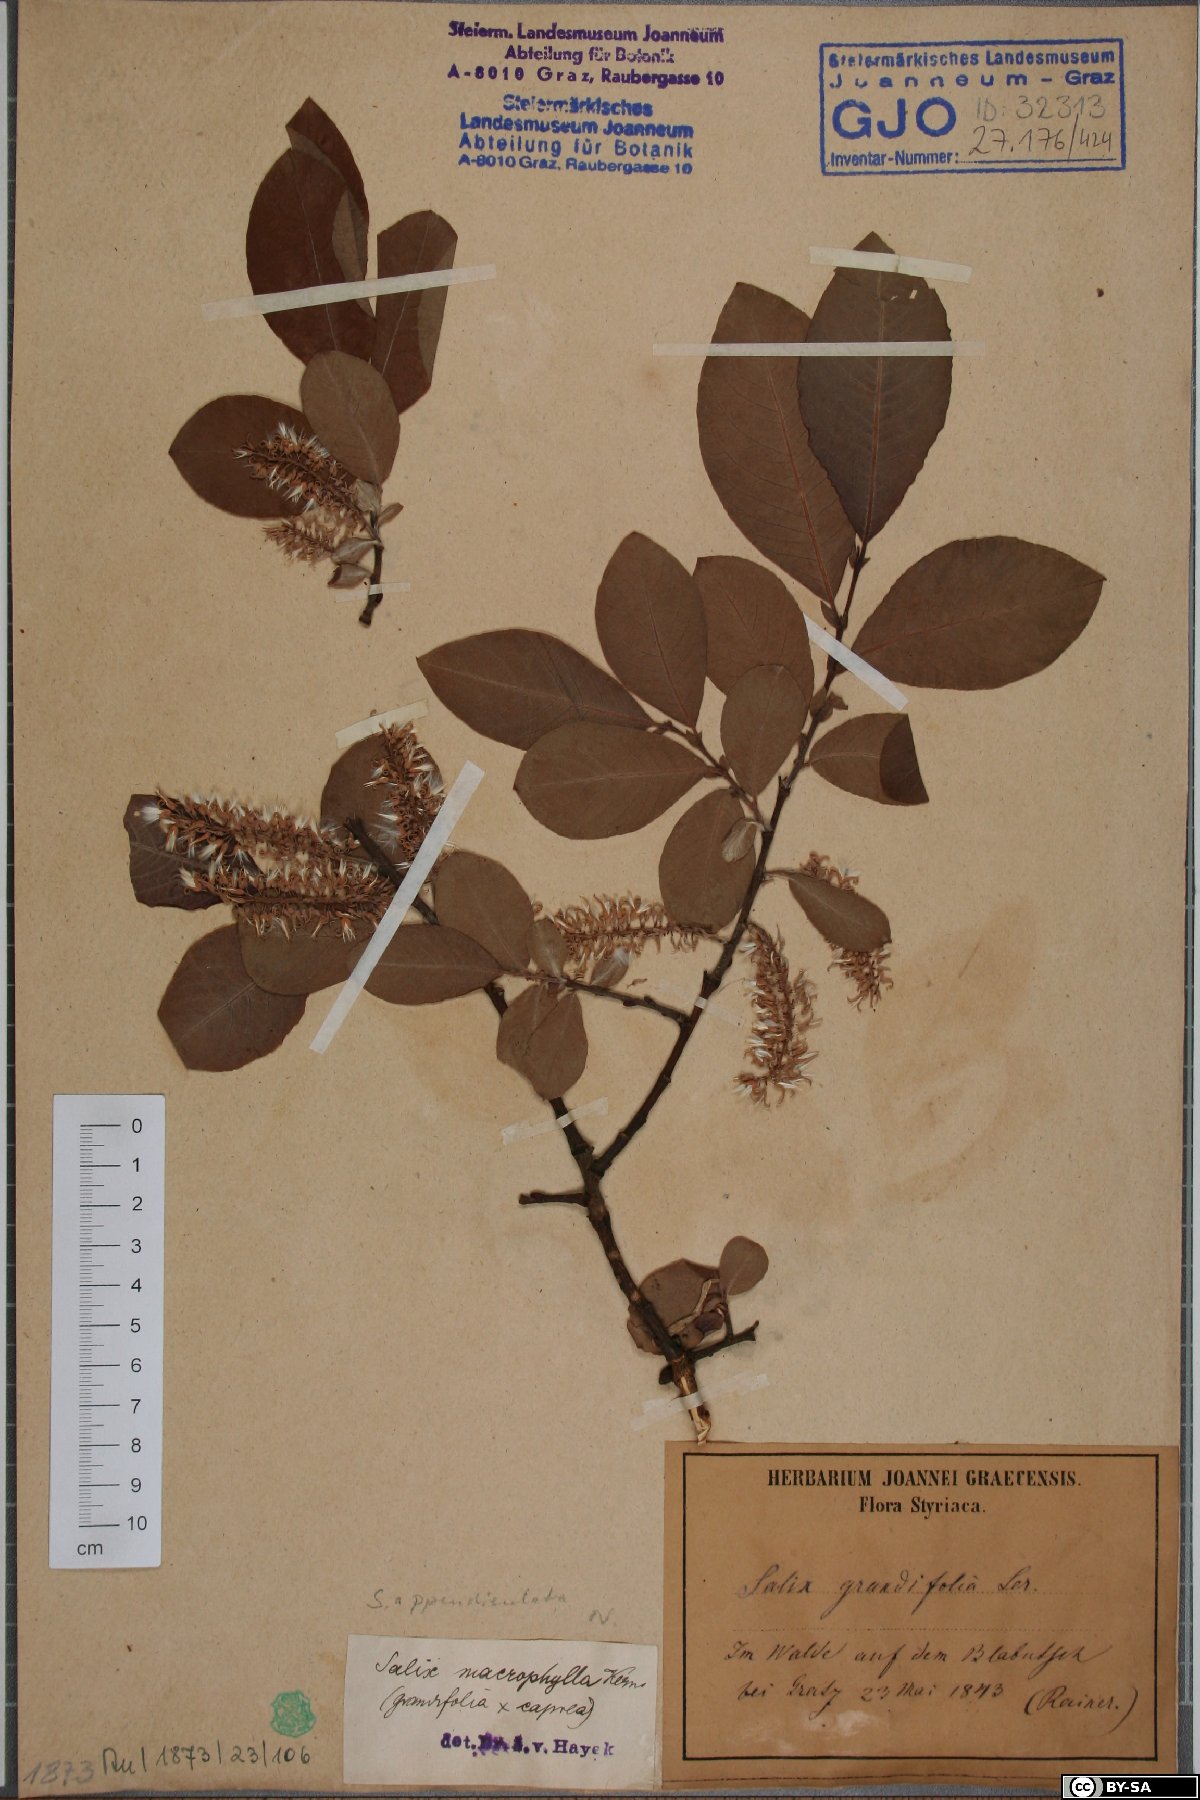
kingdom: Plantae
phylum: Tracheophyta
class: Magnoliopsida
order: Malpighiales
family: Salicaceae
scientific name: Salicaceae
